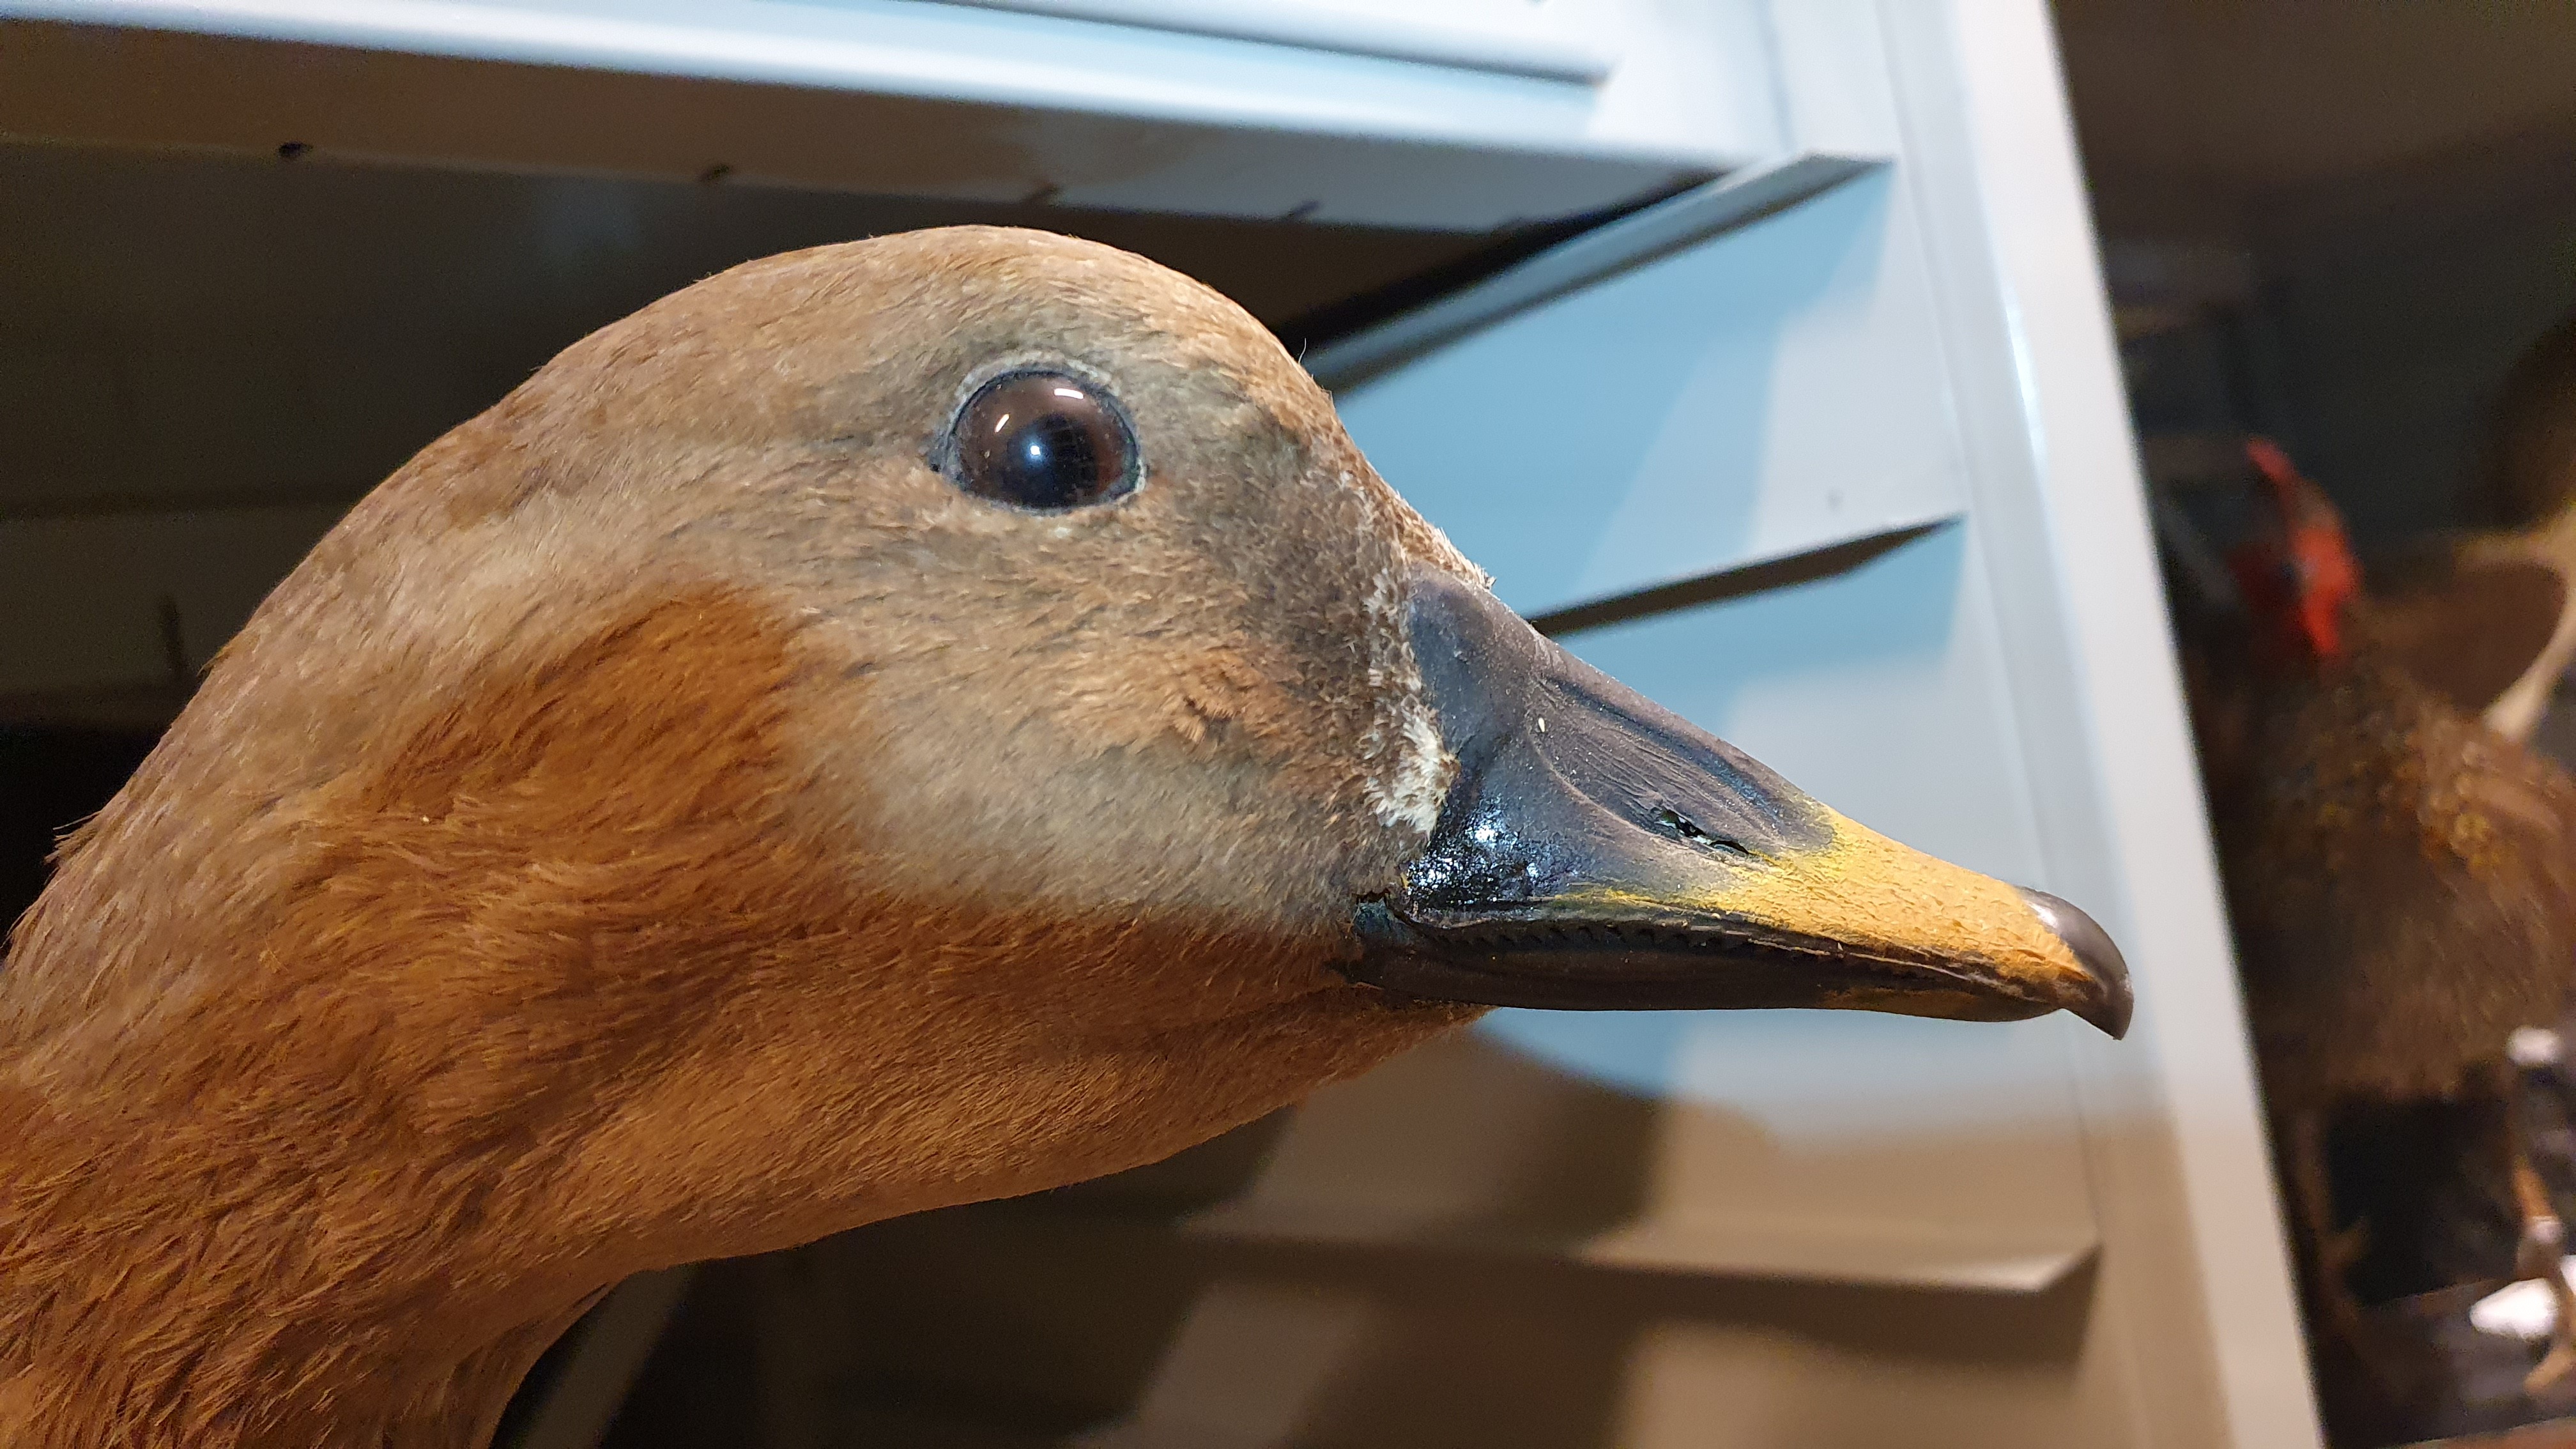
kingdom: Animalia
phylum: Chordata
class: Aves
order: Anseriformes
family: Anatidae
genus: Anser
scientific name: Anser fabalis
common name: Bean goose
